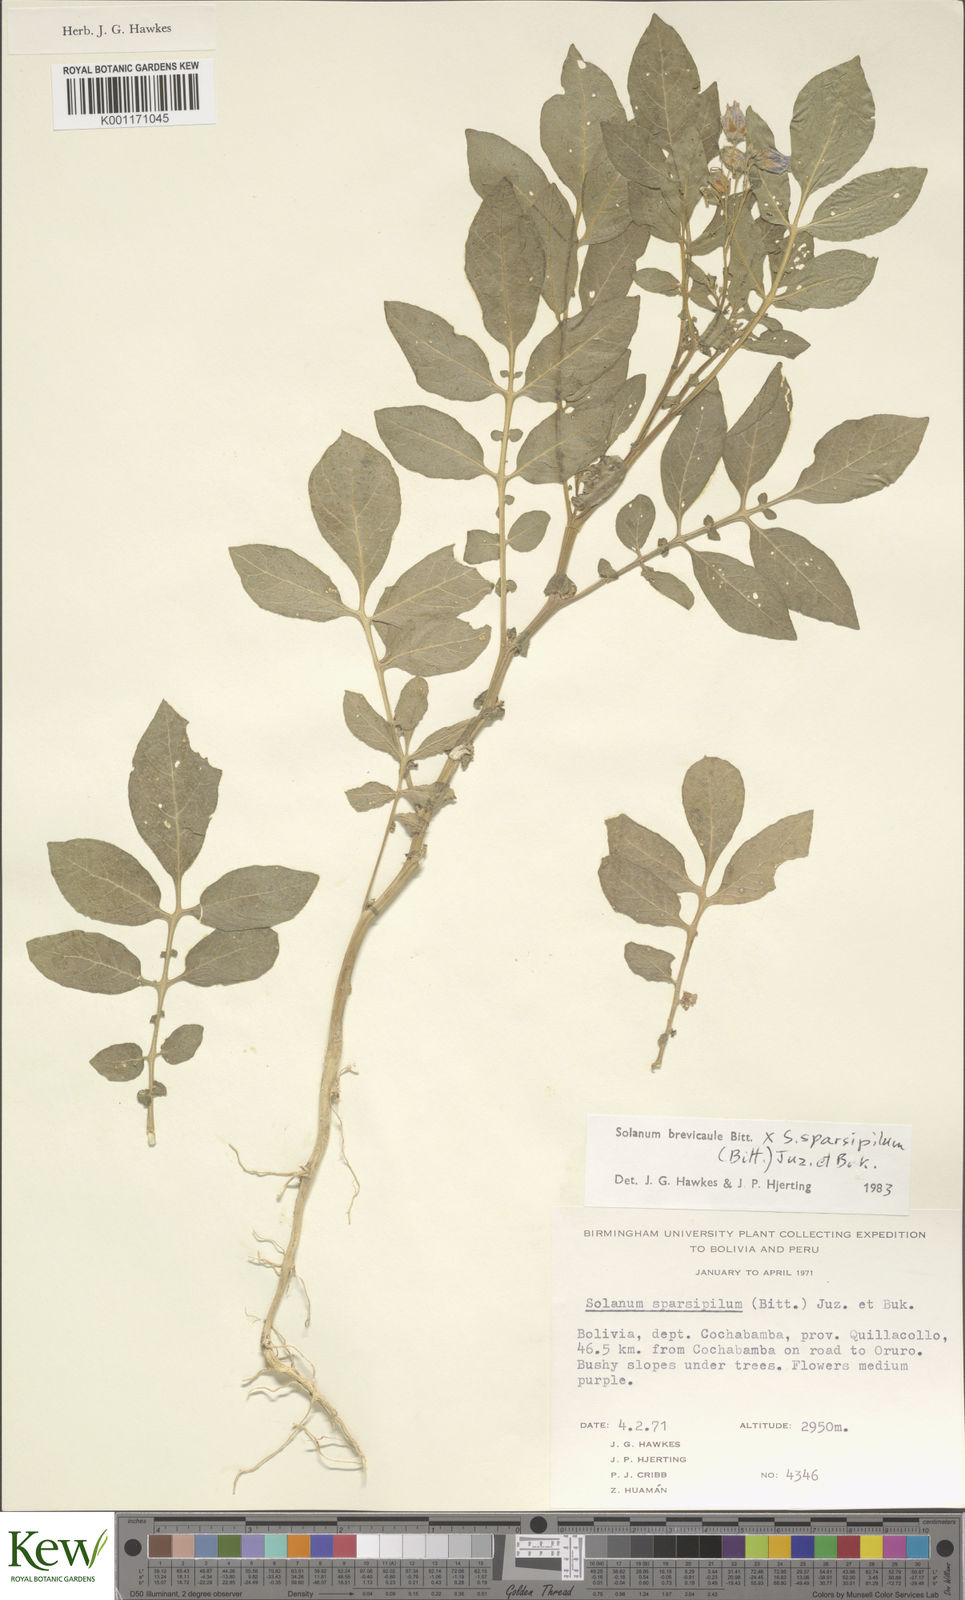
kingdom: Plantae
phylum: Tracheophyta
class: Magnoliopsida
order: Solanales
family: Solanaceae
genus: Solanum
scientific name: Solanum brevicaule
